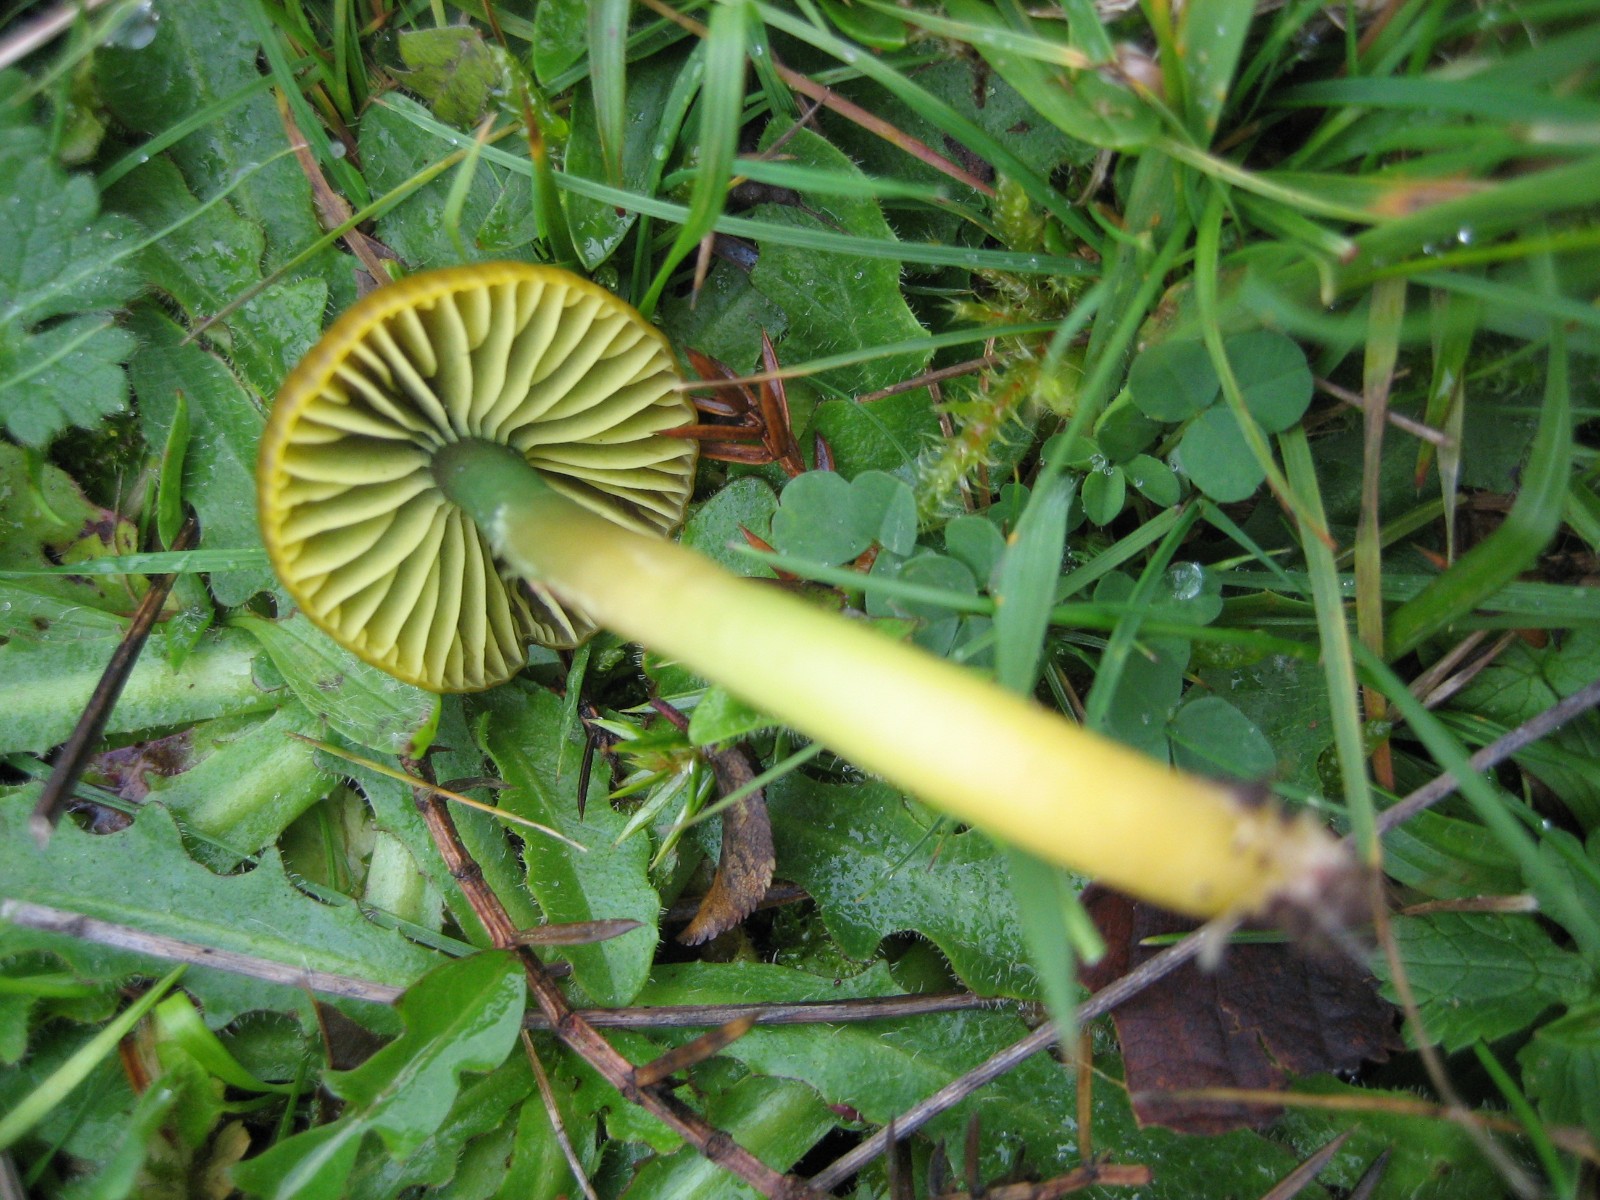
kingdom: Fungi
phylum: Basidiomycota
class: Agaricomycetes
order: Agaricales
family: Hygrophoraceae
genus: Gliophorus
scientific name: Gliophorus psittacinus
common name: papegøje-vokshat
